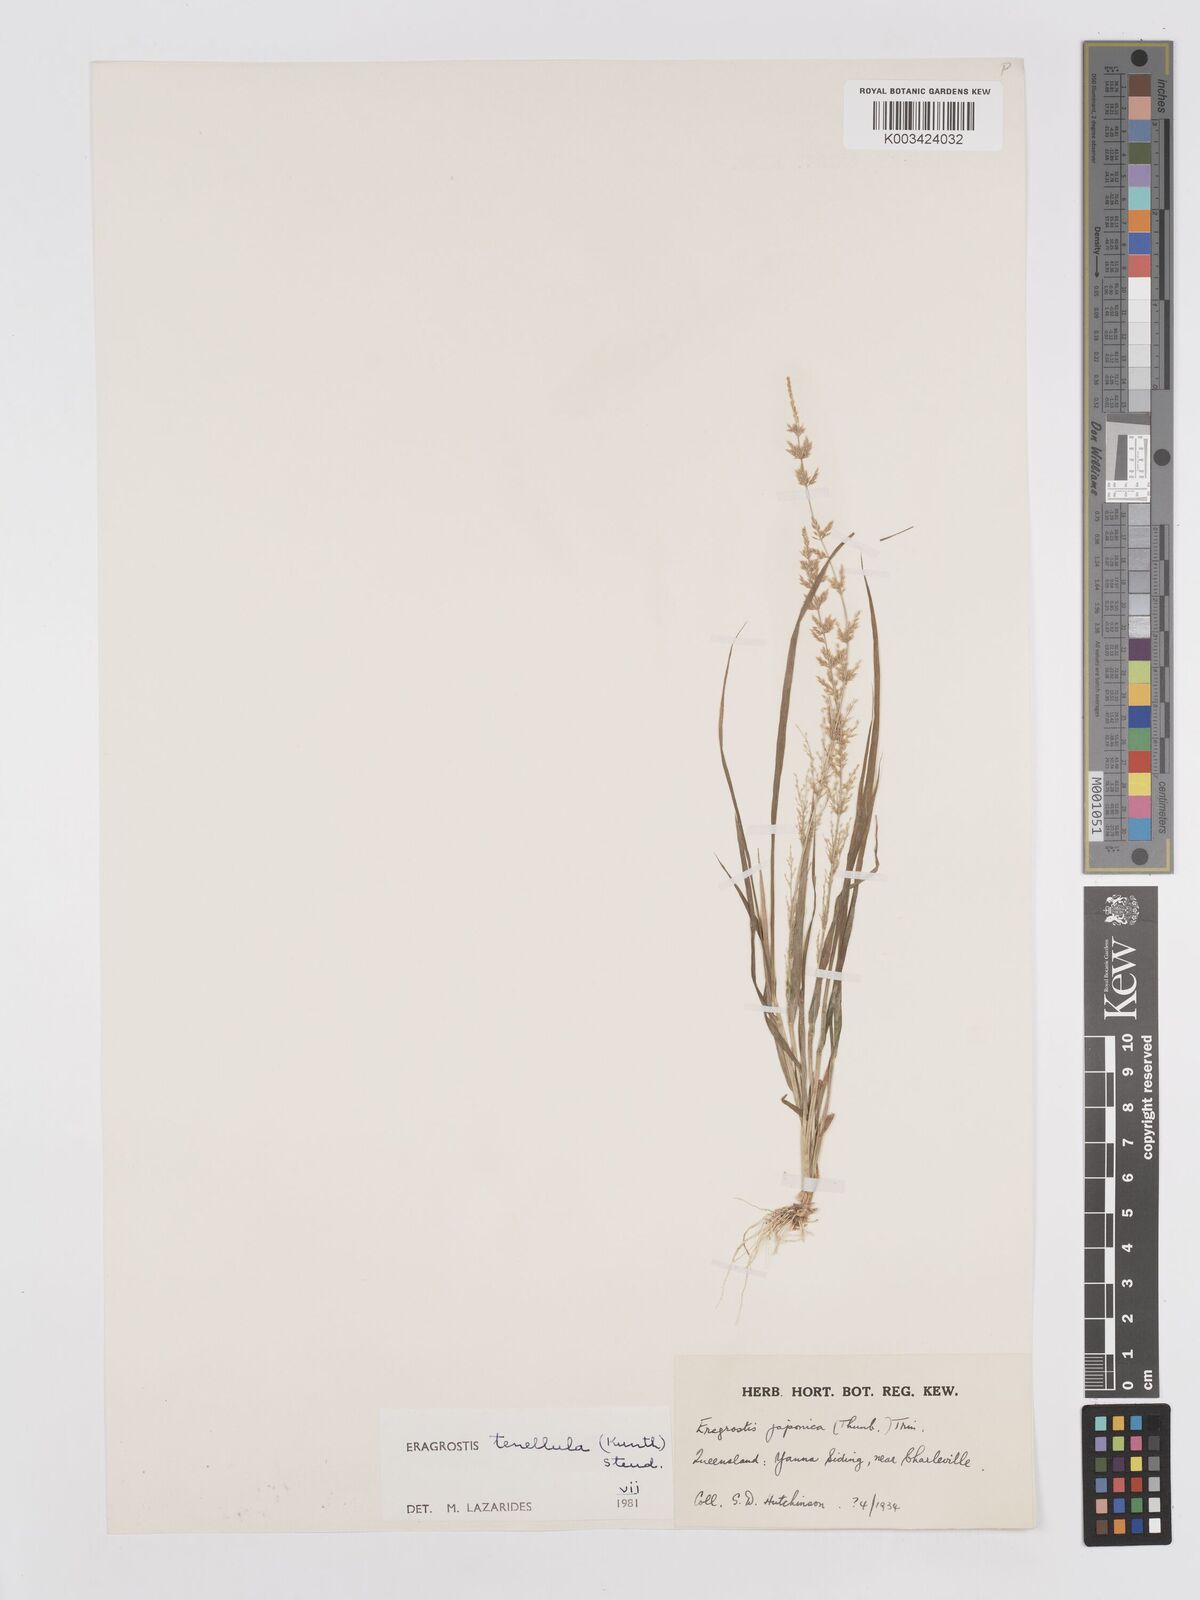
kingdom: Plantae
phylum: Tracheophyta
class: Liliopsida
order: Poales
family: Poaceae
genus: Eragrostis
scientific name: Eragrostis tenellula
